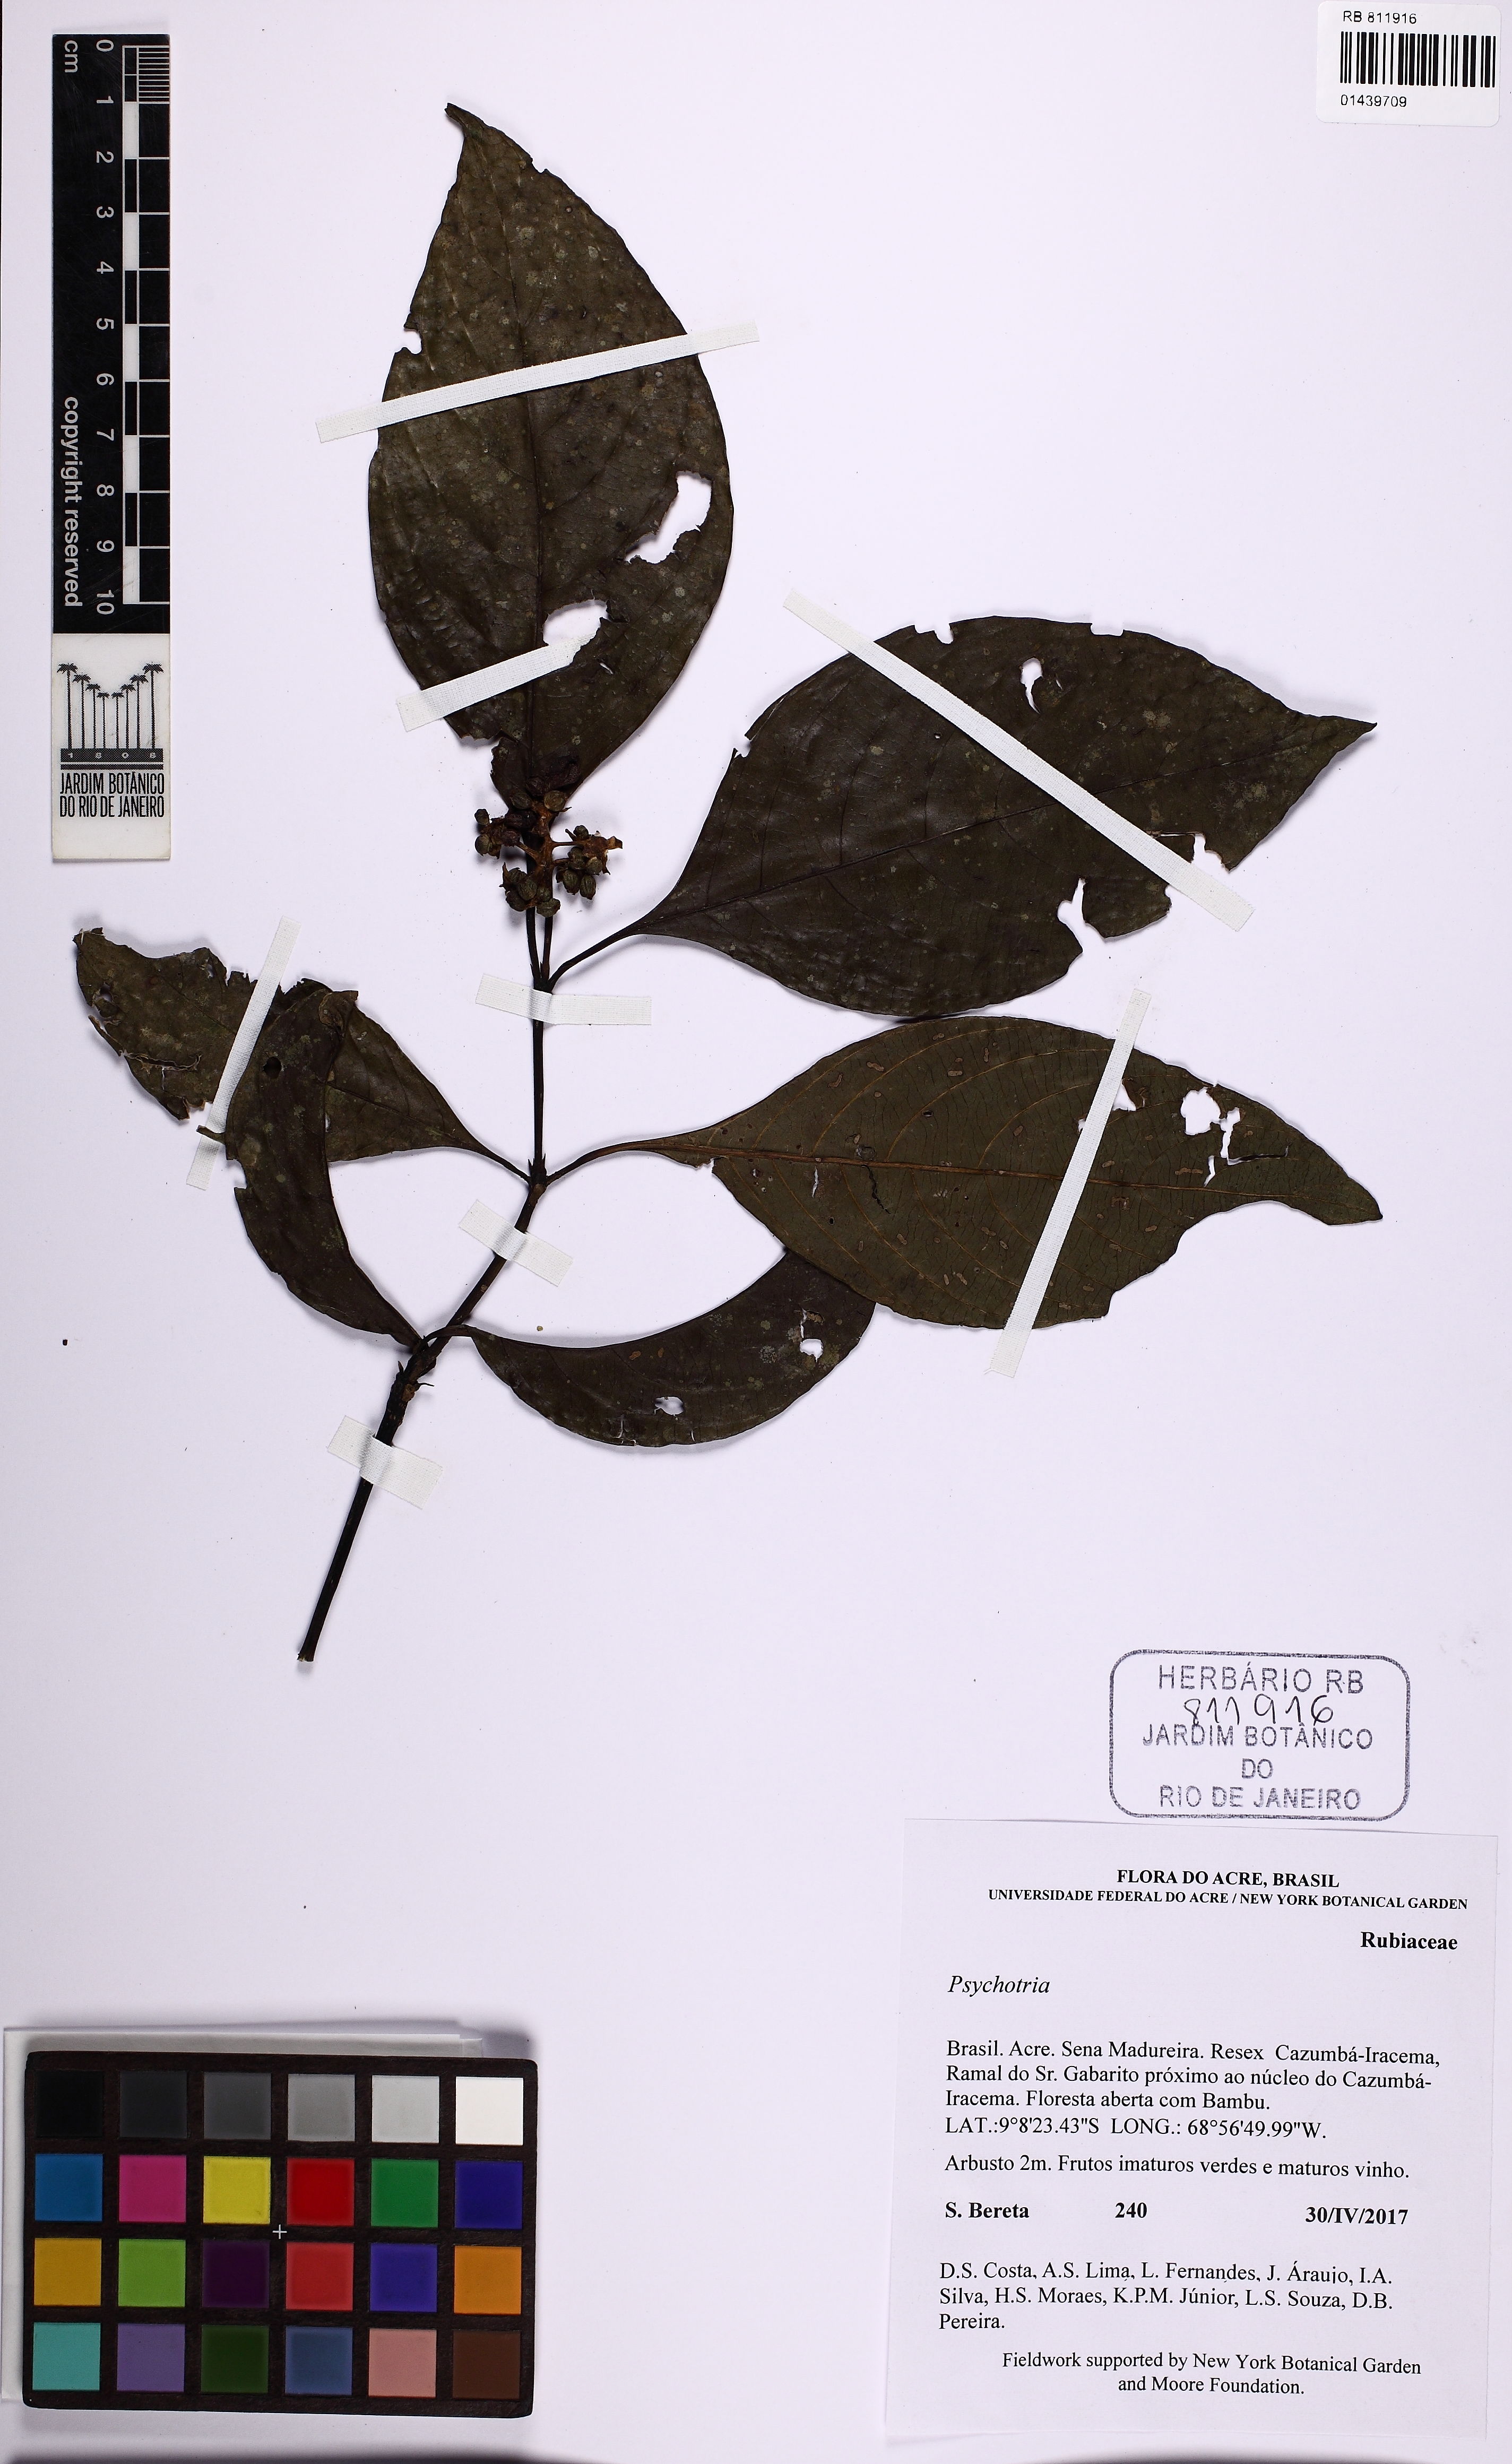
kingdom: Plantae
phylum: Tracheophyta
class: Magnoliopsida
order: Gentianales
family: Rubiaceae
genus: Palicourea
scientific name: Palicourea hoffmannseggiana
